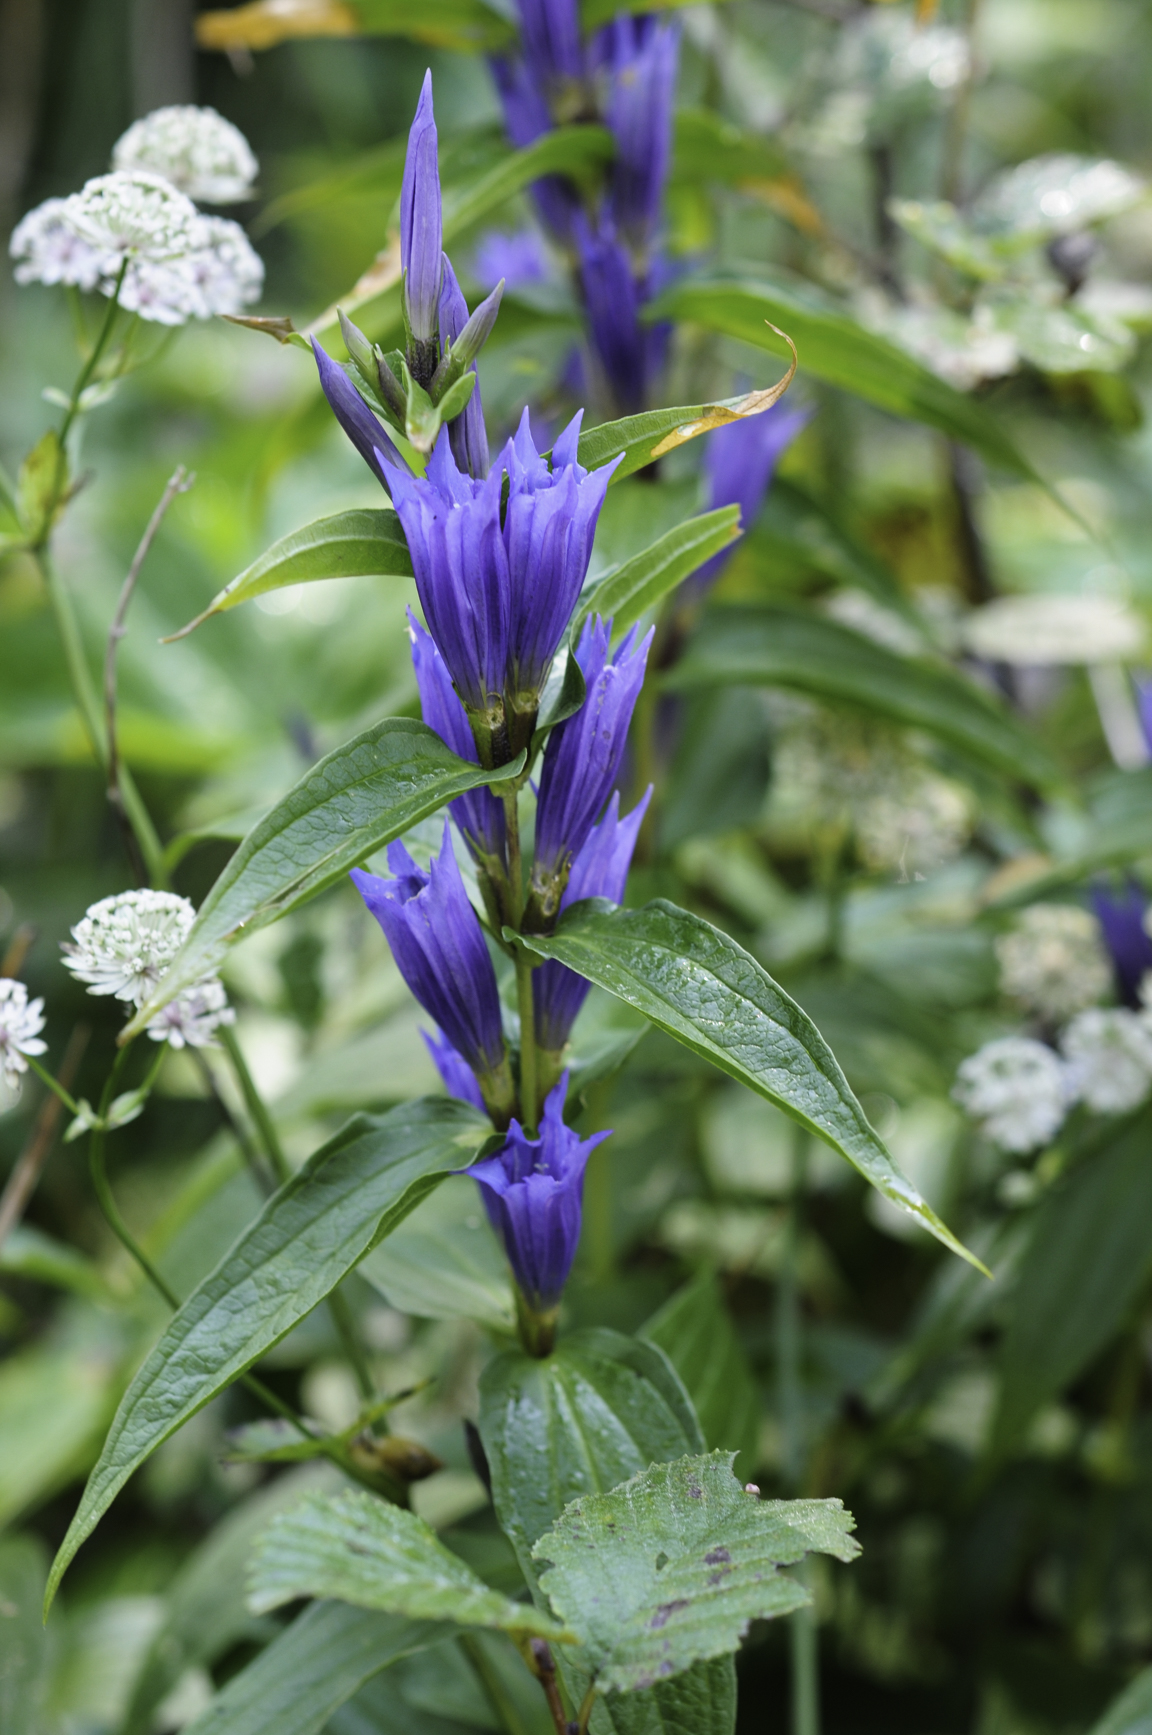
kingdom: Plantae
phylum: Tracheophyta
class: Magnoliopsida
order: Gentianales
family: Gentianaceae
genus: Gentiana
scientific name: Gentiana asclepiadea
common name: Willow gentian
